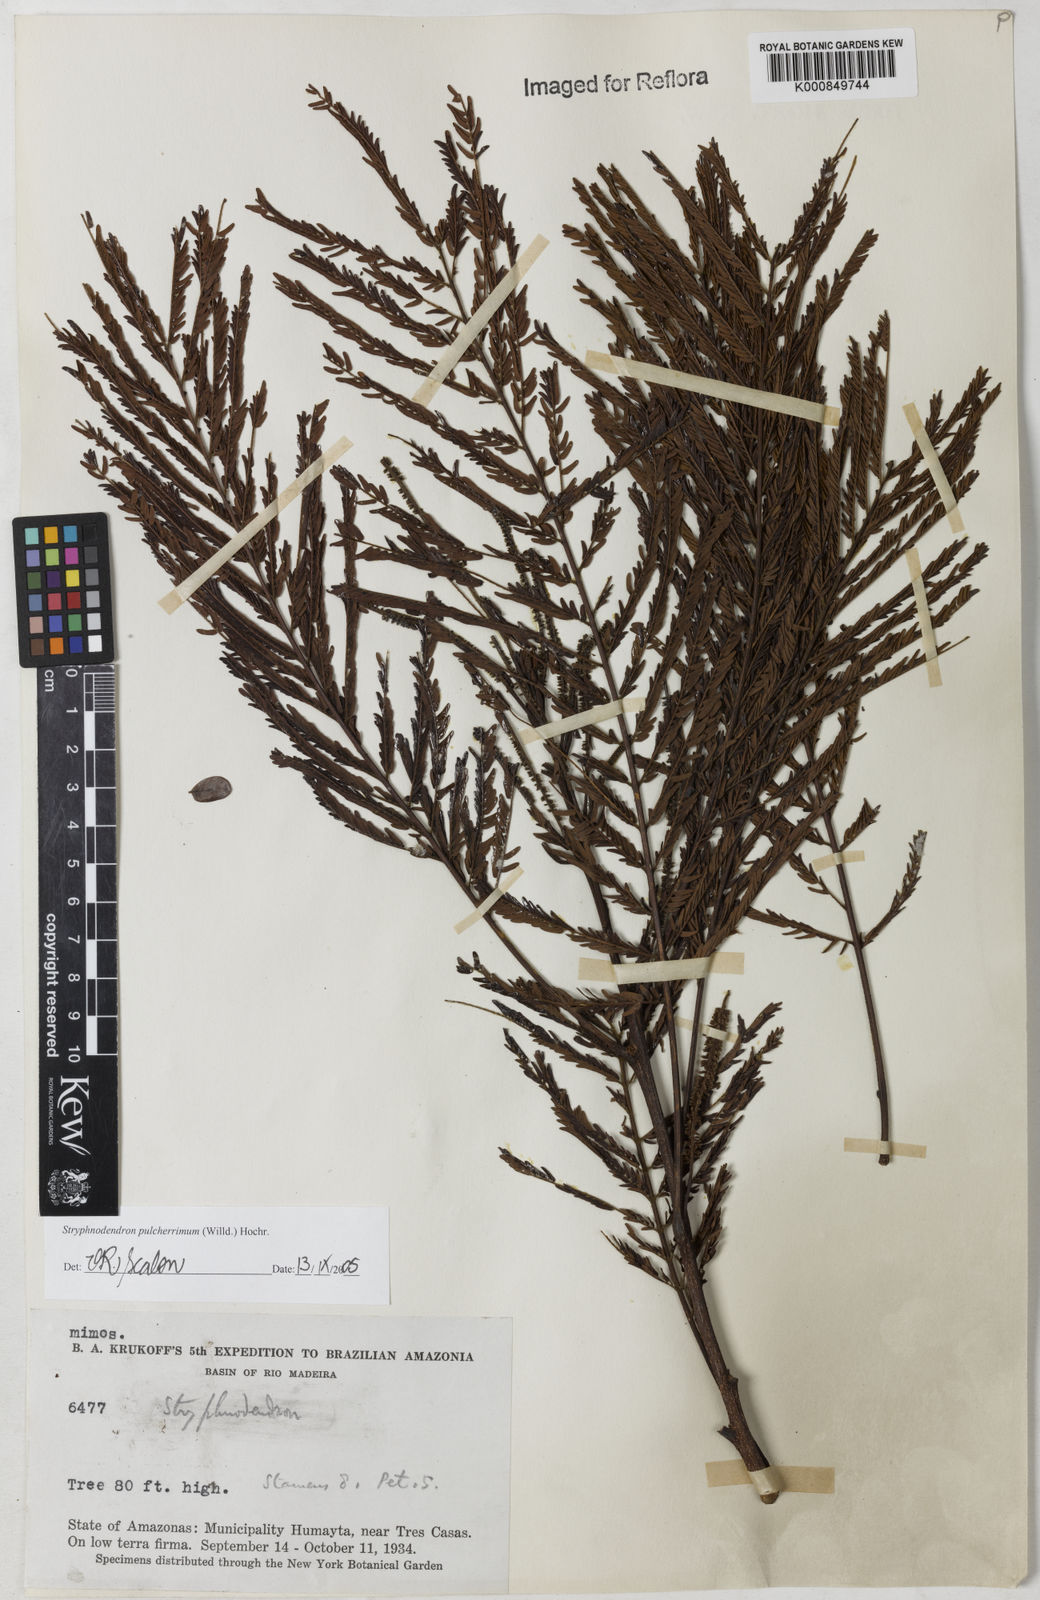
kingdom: Plantae
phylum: Tracheophyta
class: Magnoliopsida
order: Fabales
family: Fabaceae
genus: Stryphnodendron
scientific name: Stryphnodendron pulcherrimum
